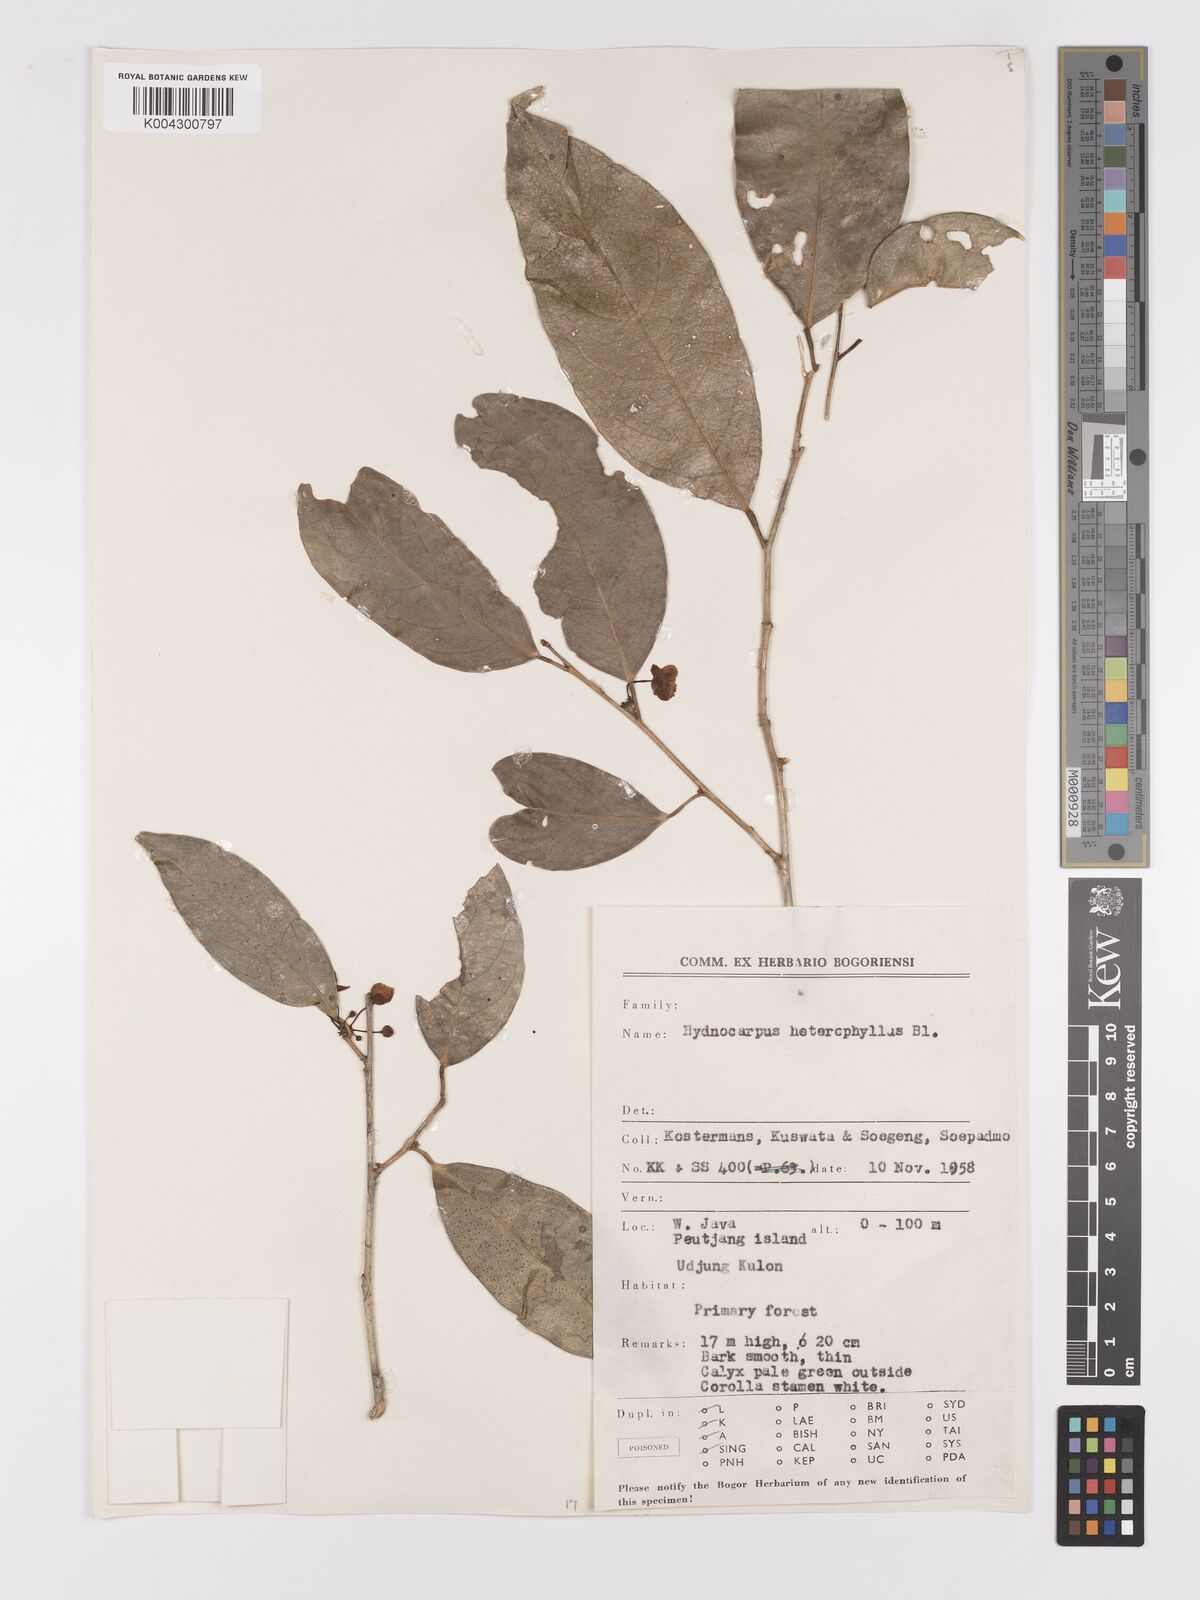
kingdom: Plantae
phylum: Tracheophyta
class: Magnoliopsida
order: Malpighiales
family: Achariaceae
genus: Hydnocarpus
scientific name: Hydnocarpus heterophyllus
